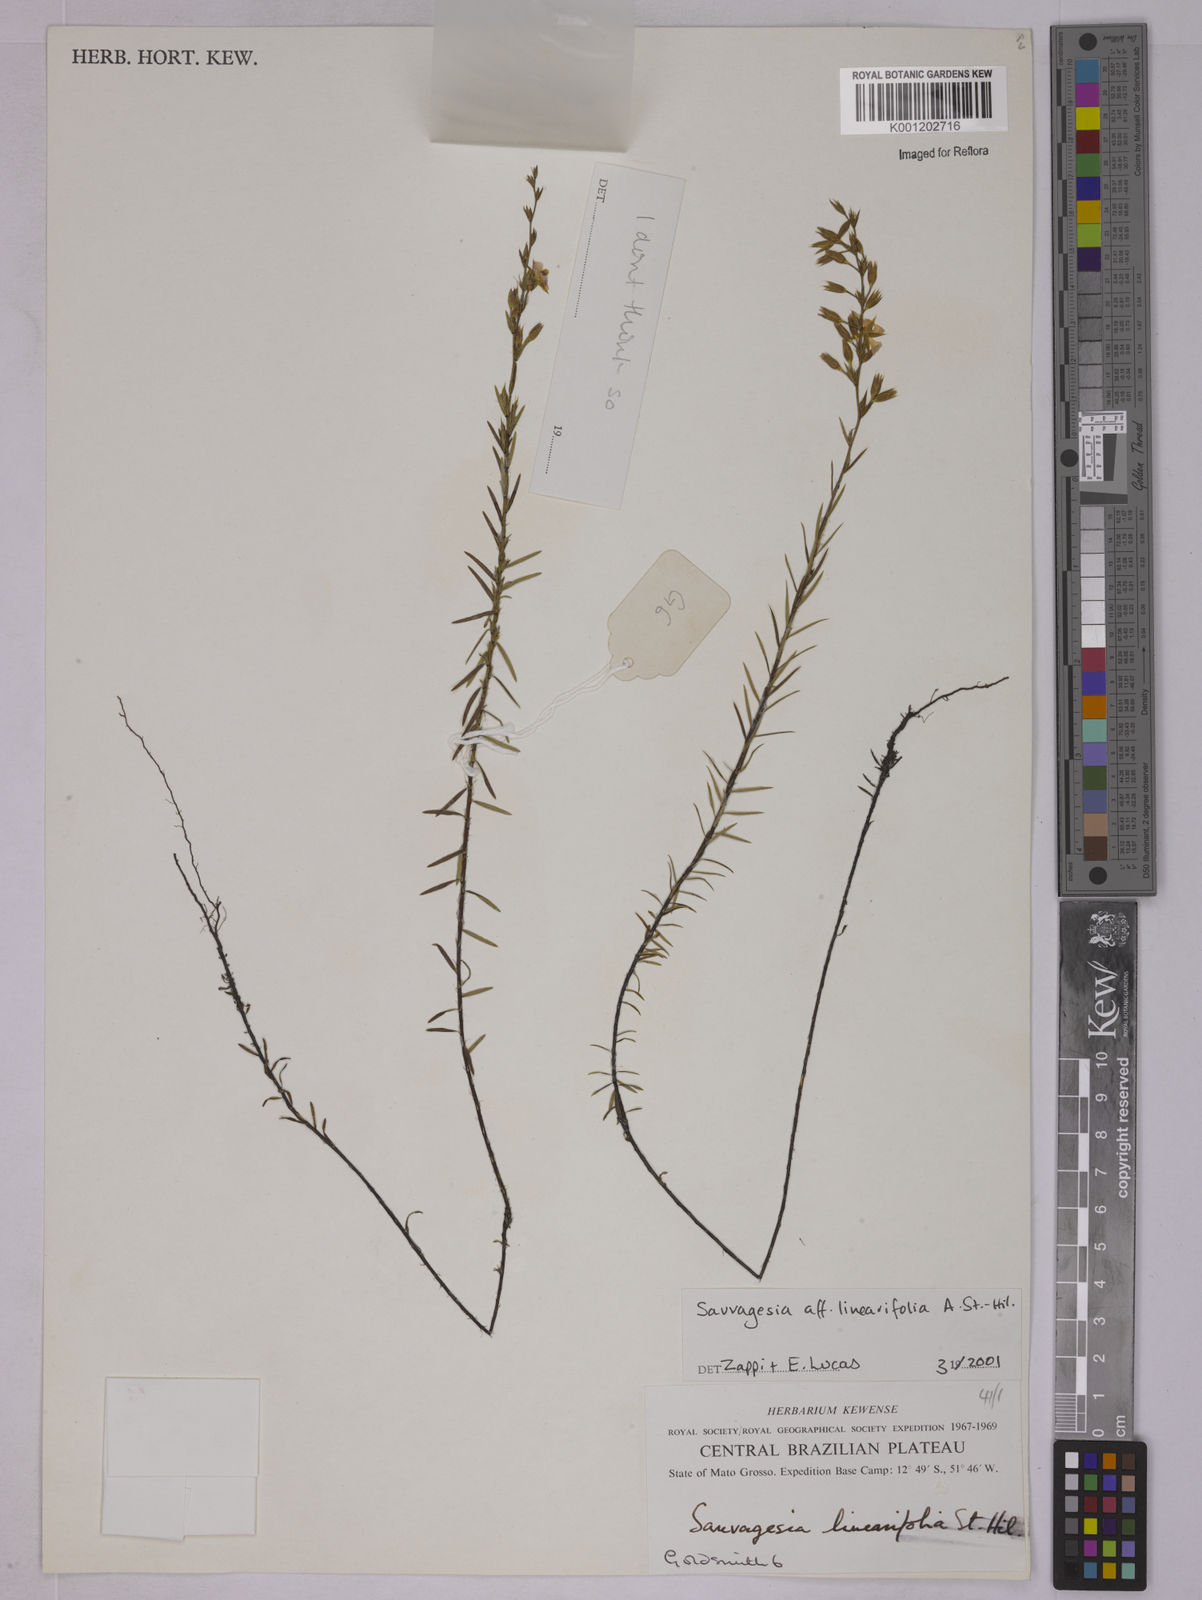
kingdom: Plantae
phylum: Tracheophyta
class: Magnoliopsida
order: Malpighiales
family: Ochnaceae
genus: Sauvagesia
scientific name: Sauvagesia linearifolia
